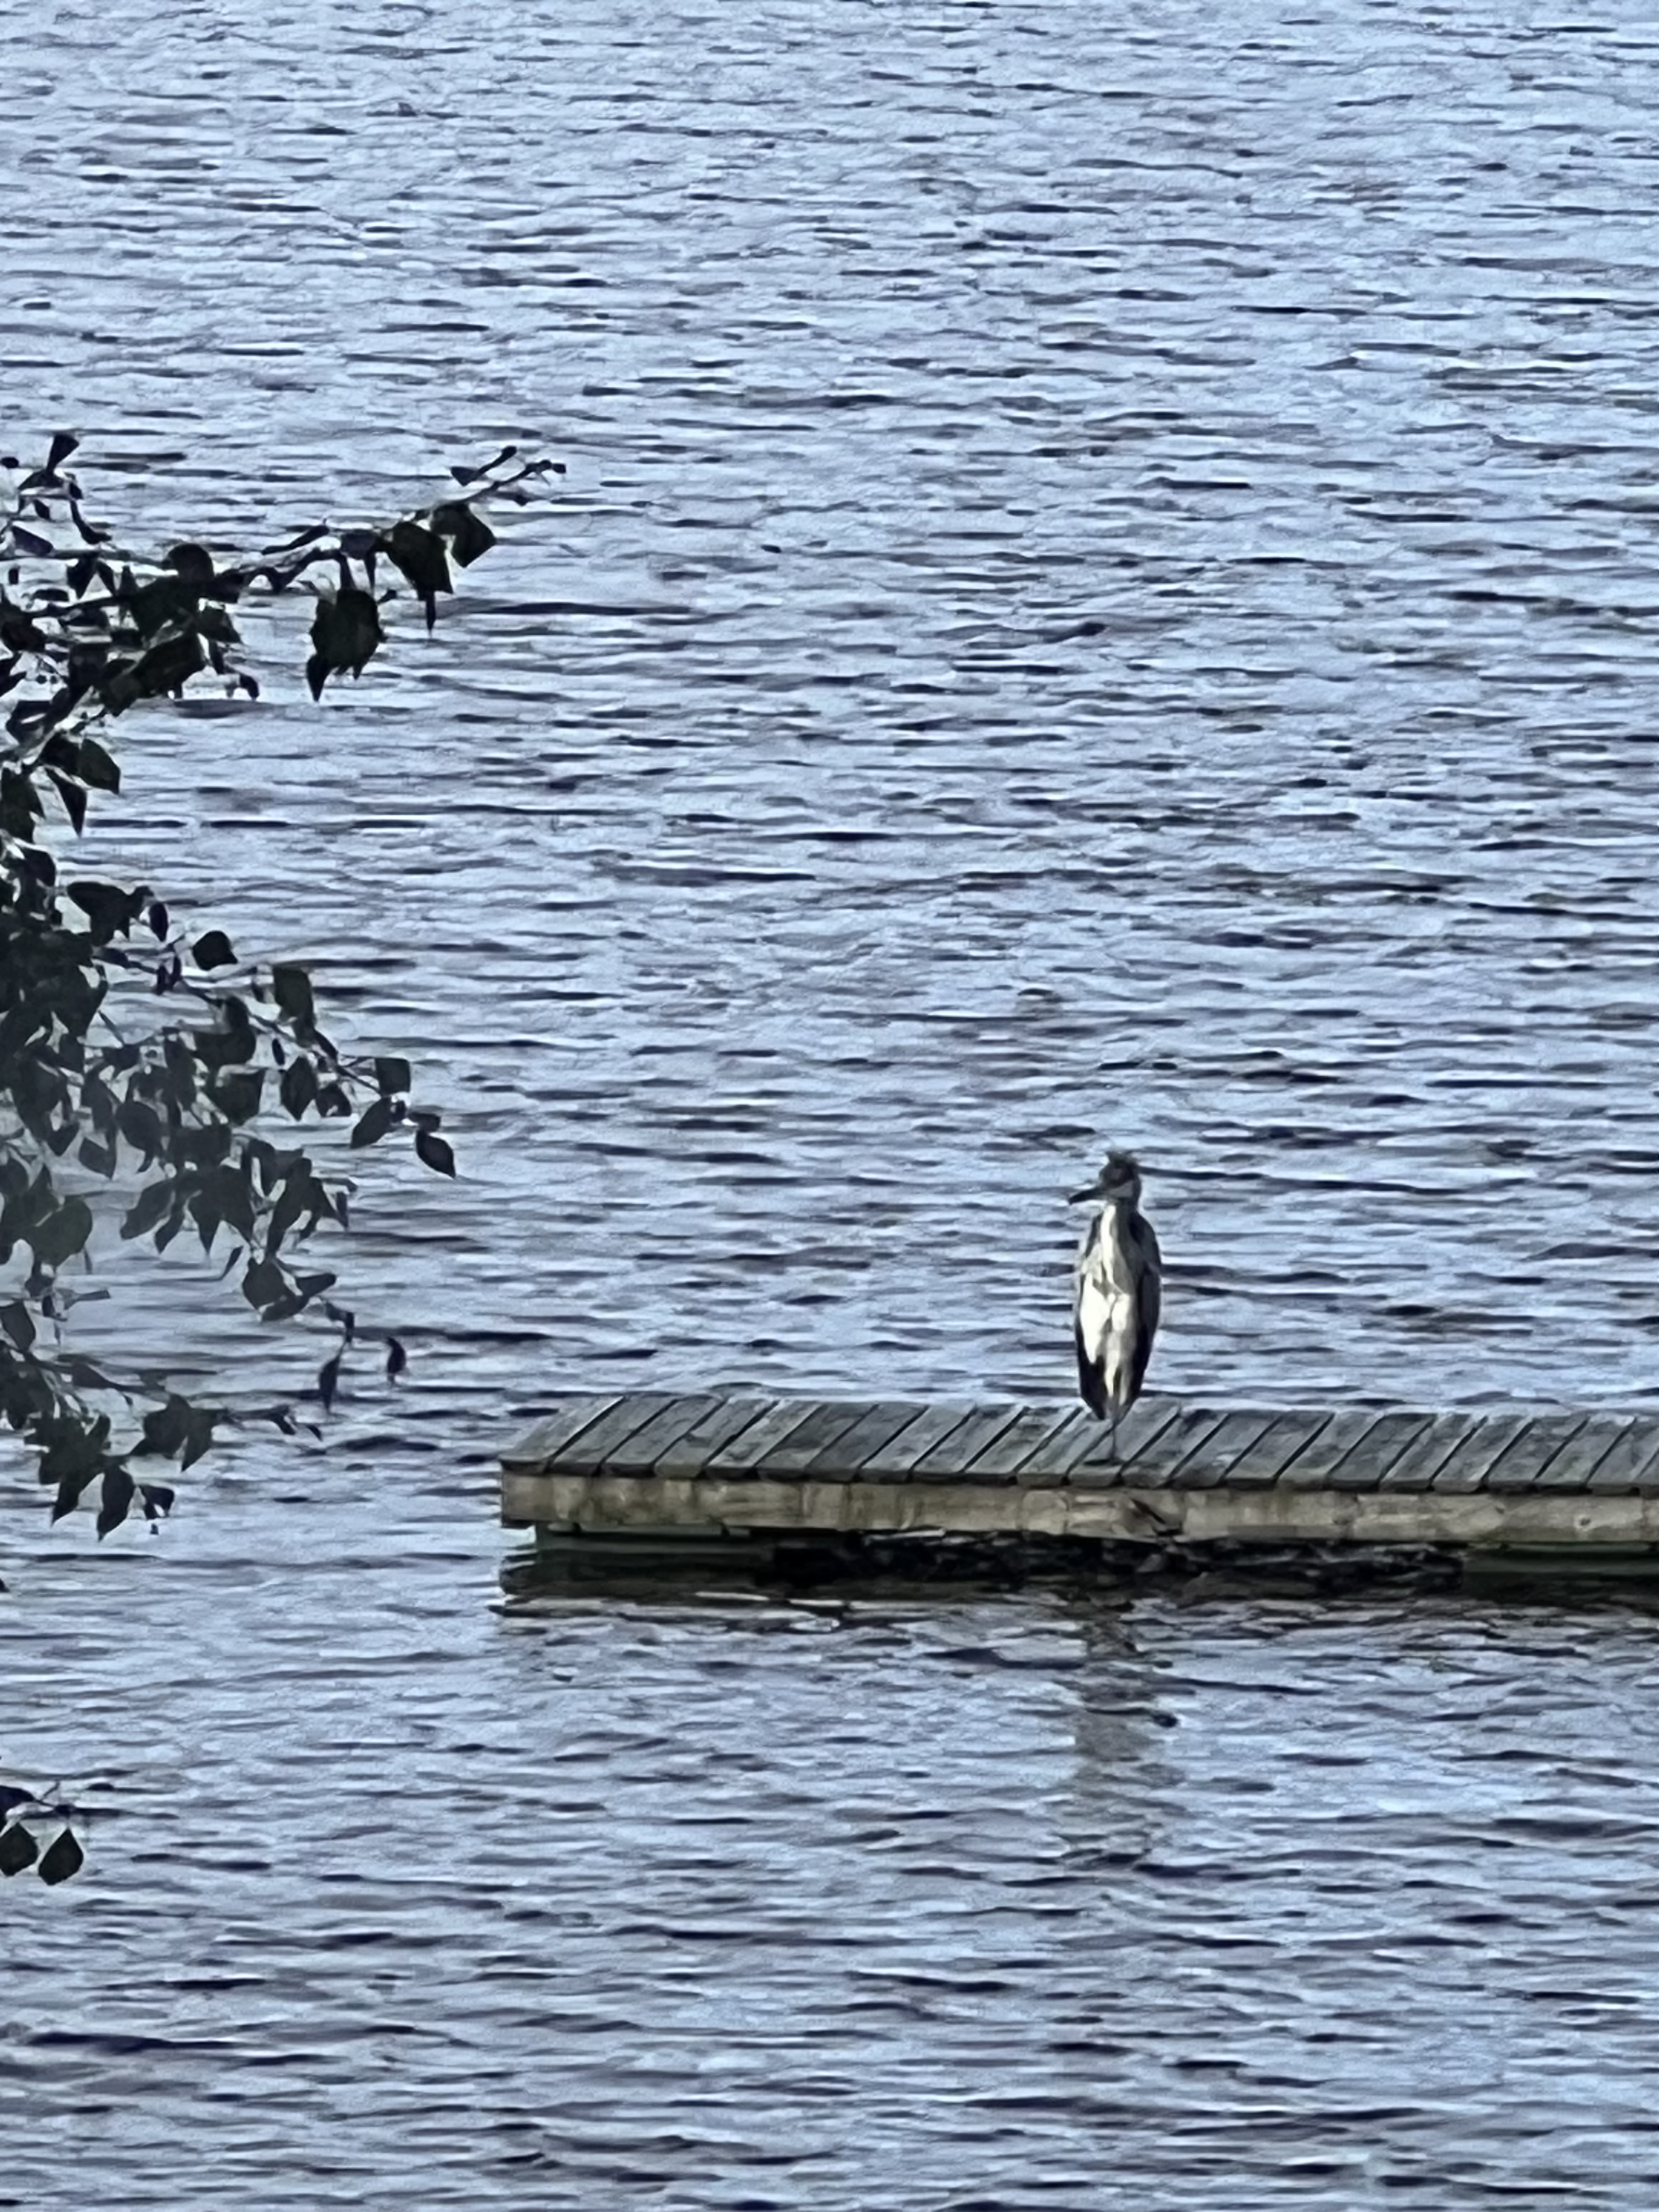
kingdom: Animalia
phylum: Chordata
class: Aves
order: Pelecaniformes
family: Ardeidae
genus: Ardea
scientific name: Ardea cinerea
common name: Grey heron
